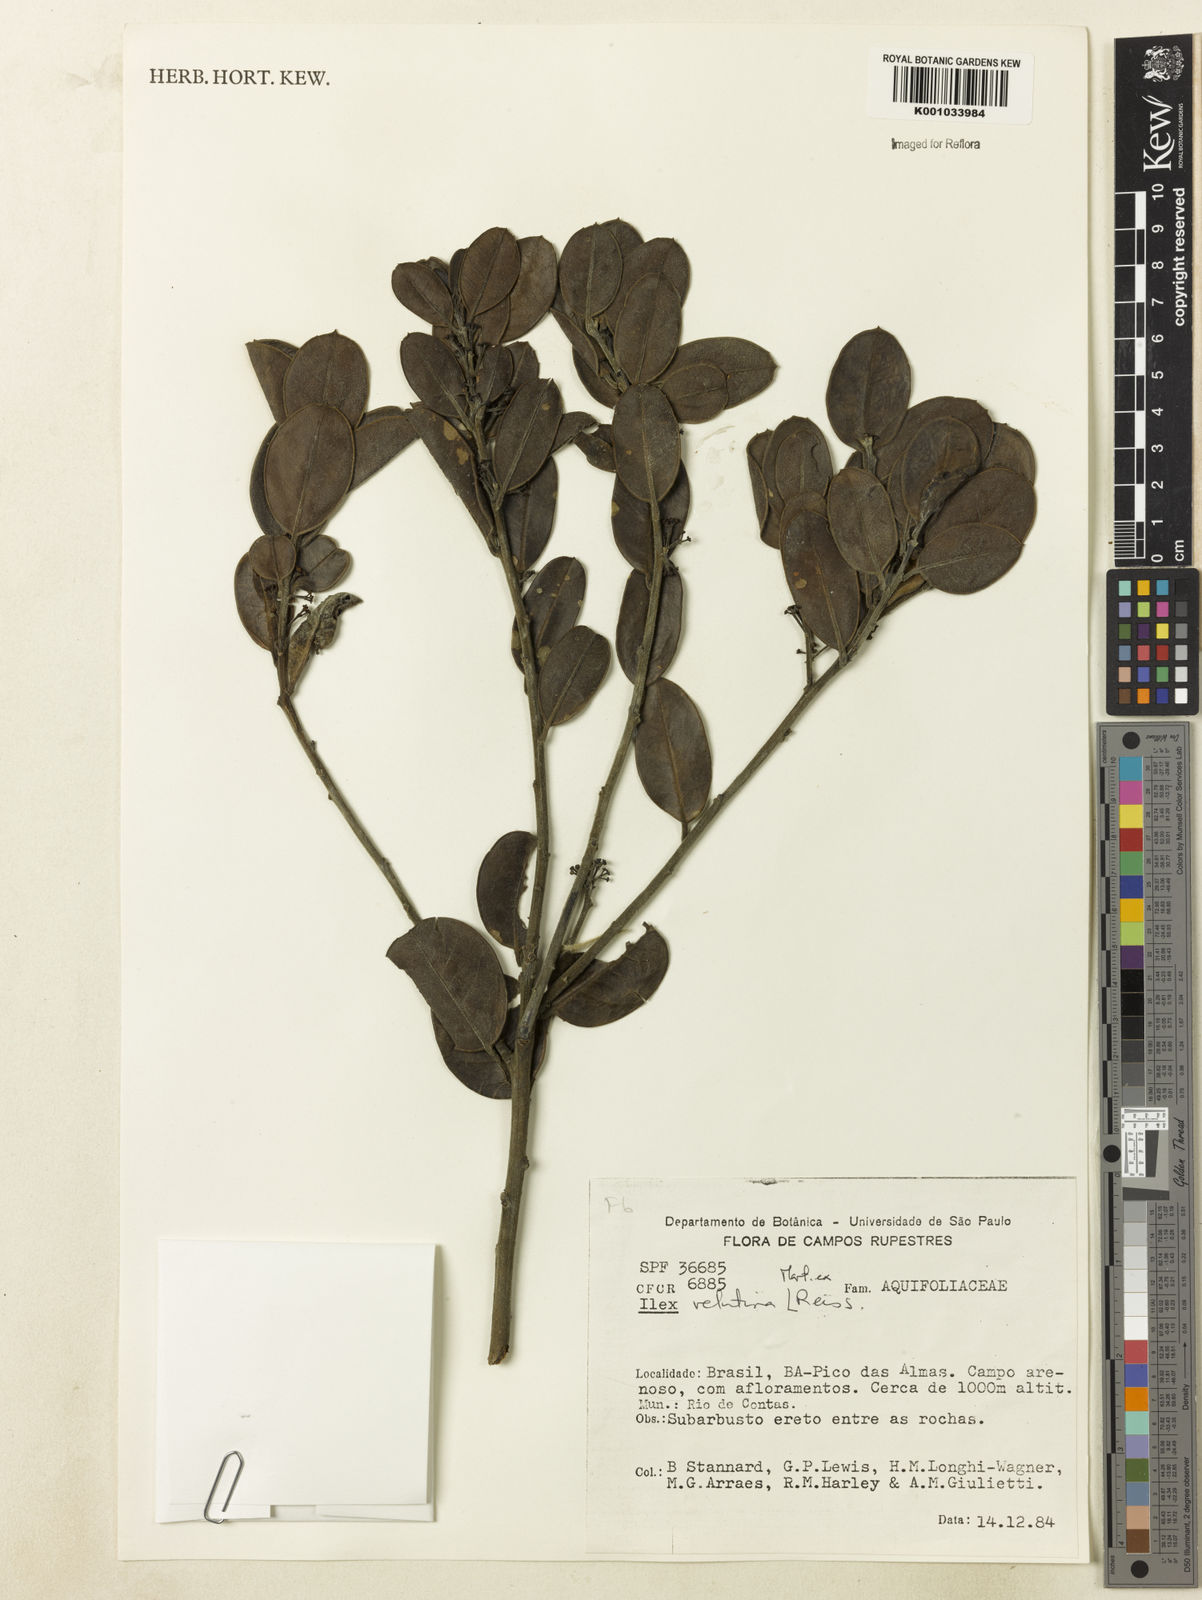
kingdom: Plantae
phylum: Tracheophyta
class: Magnoliopsida
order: Aquifoliales
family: Aquifoliaceae
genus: Ilex
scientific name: Ilex velutina
